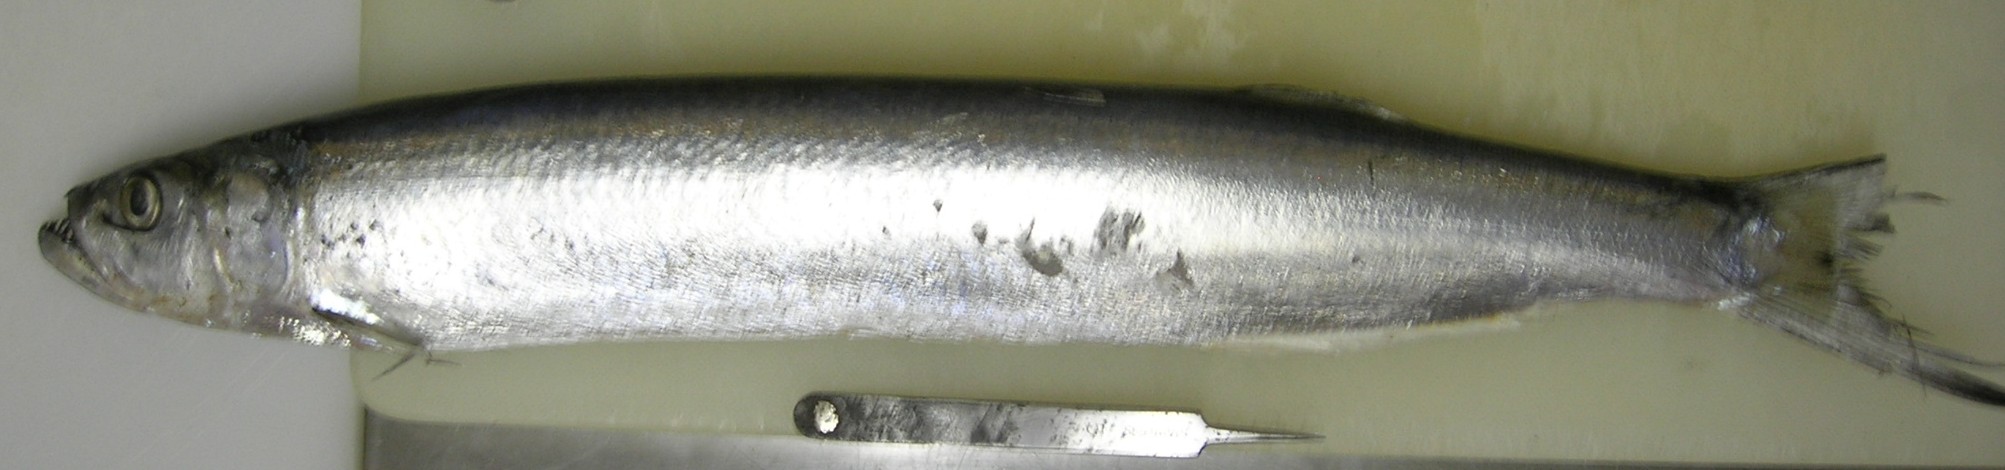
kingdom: Animalia
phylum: Chordata
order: Clupeiformes
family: Chirocentridae
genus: Chirocentrus
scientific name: Chirocentrus dorab
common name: Wolf herring
